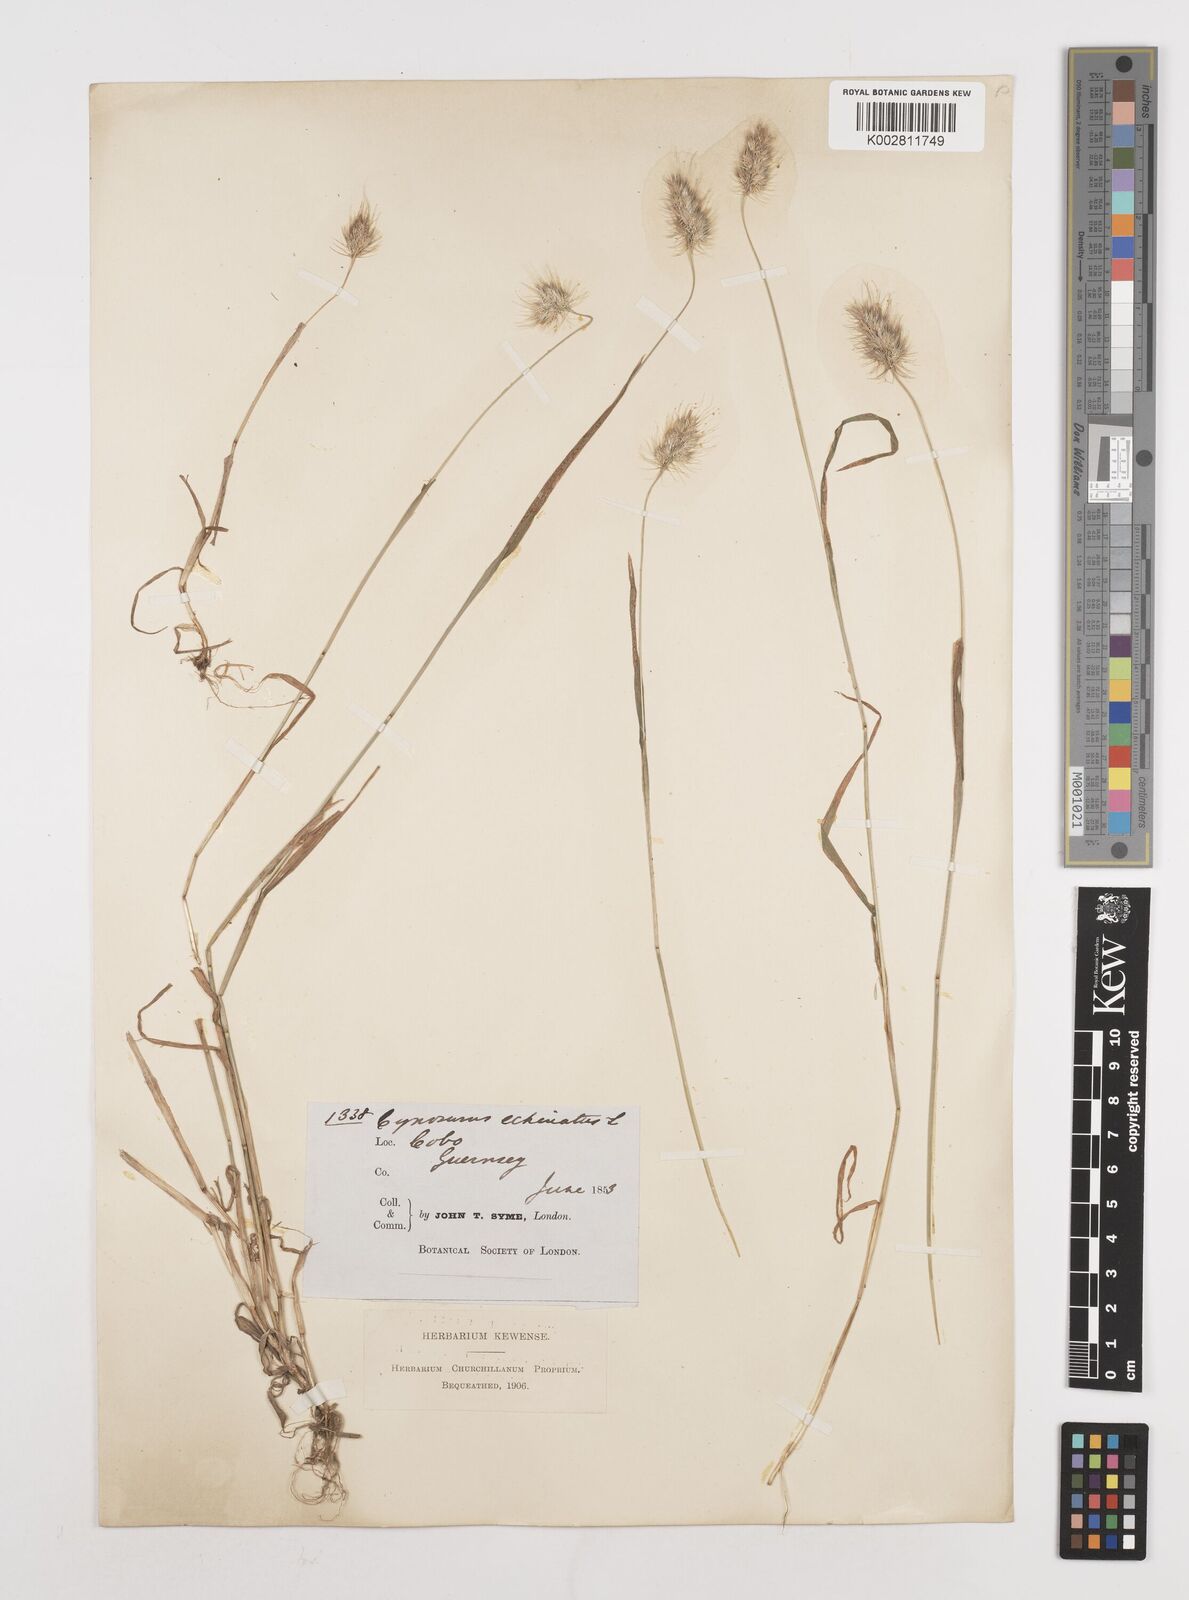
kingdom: Plantae
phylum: Tracheophyta
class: Liliopsida
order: Poales
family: Poaceae
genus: Cynosurus
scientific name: Cynosurus echinatus
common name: Rough dog's-tail
